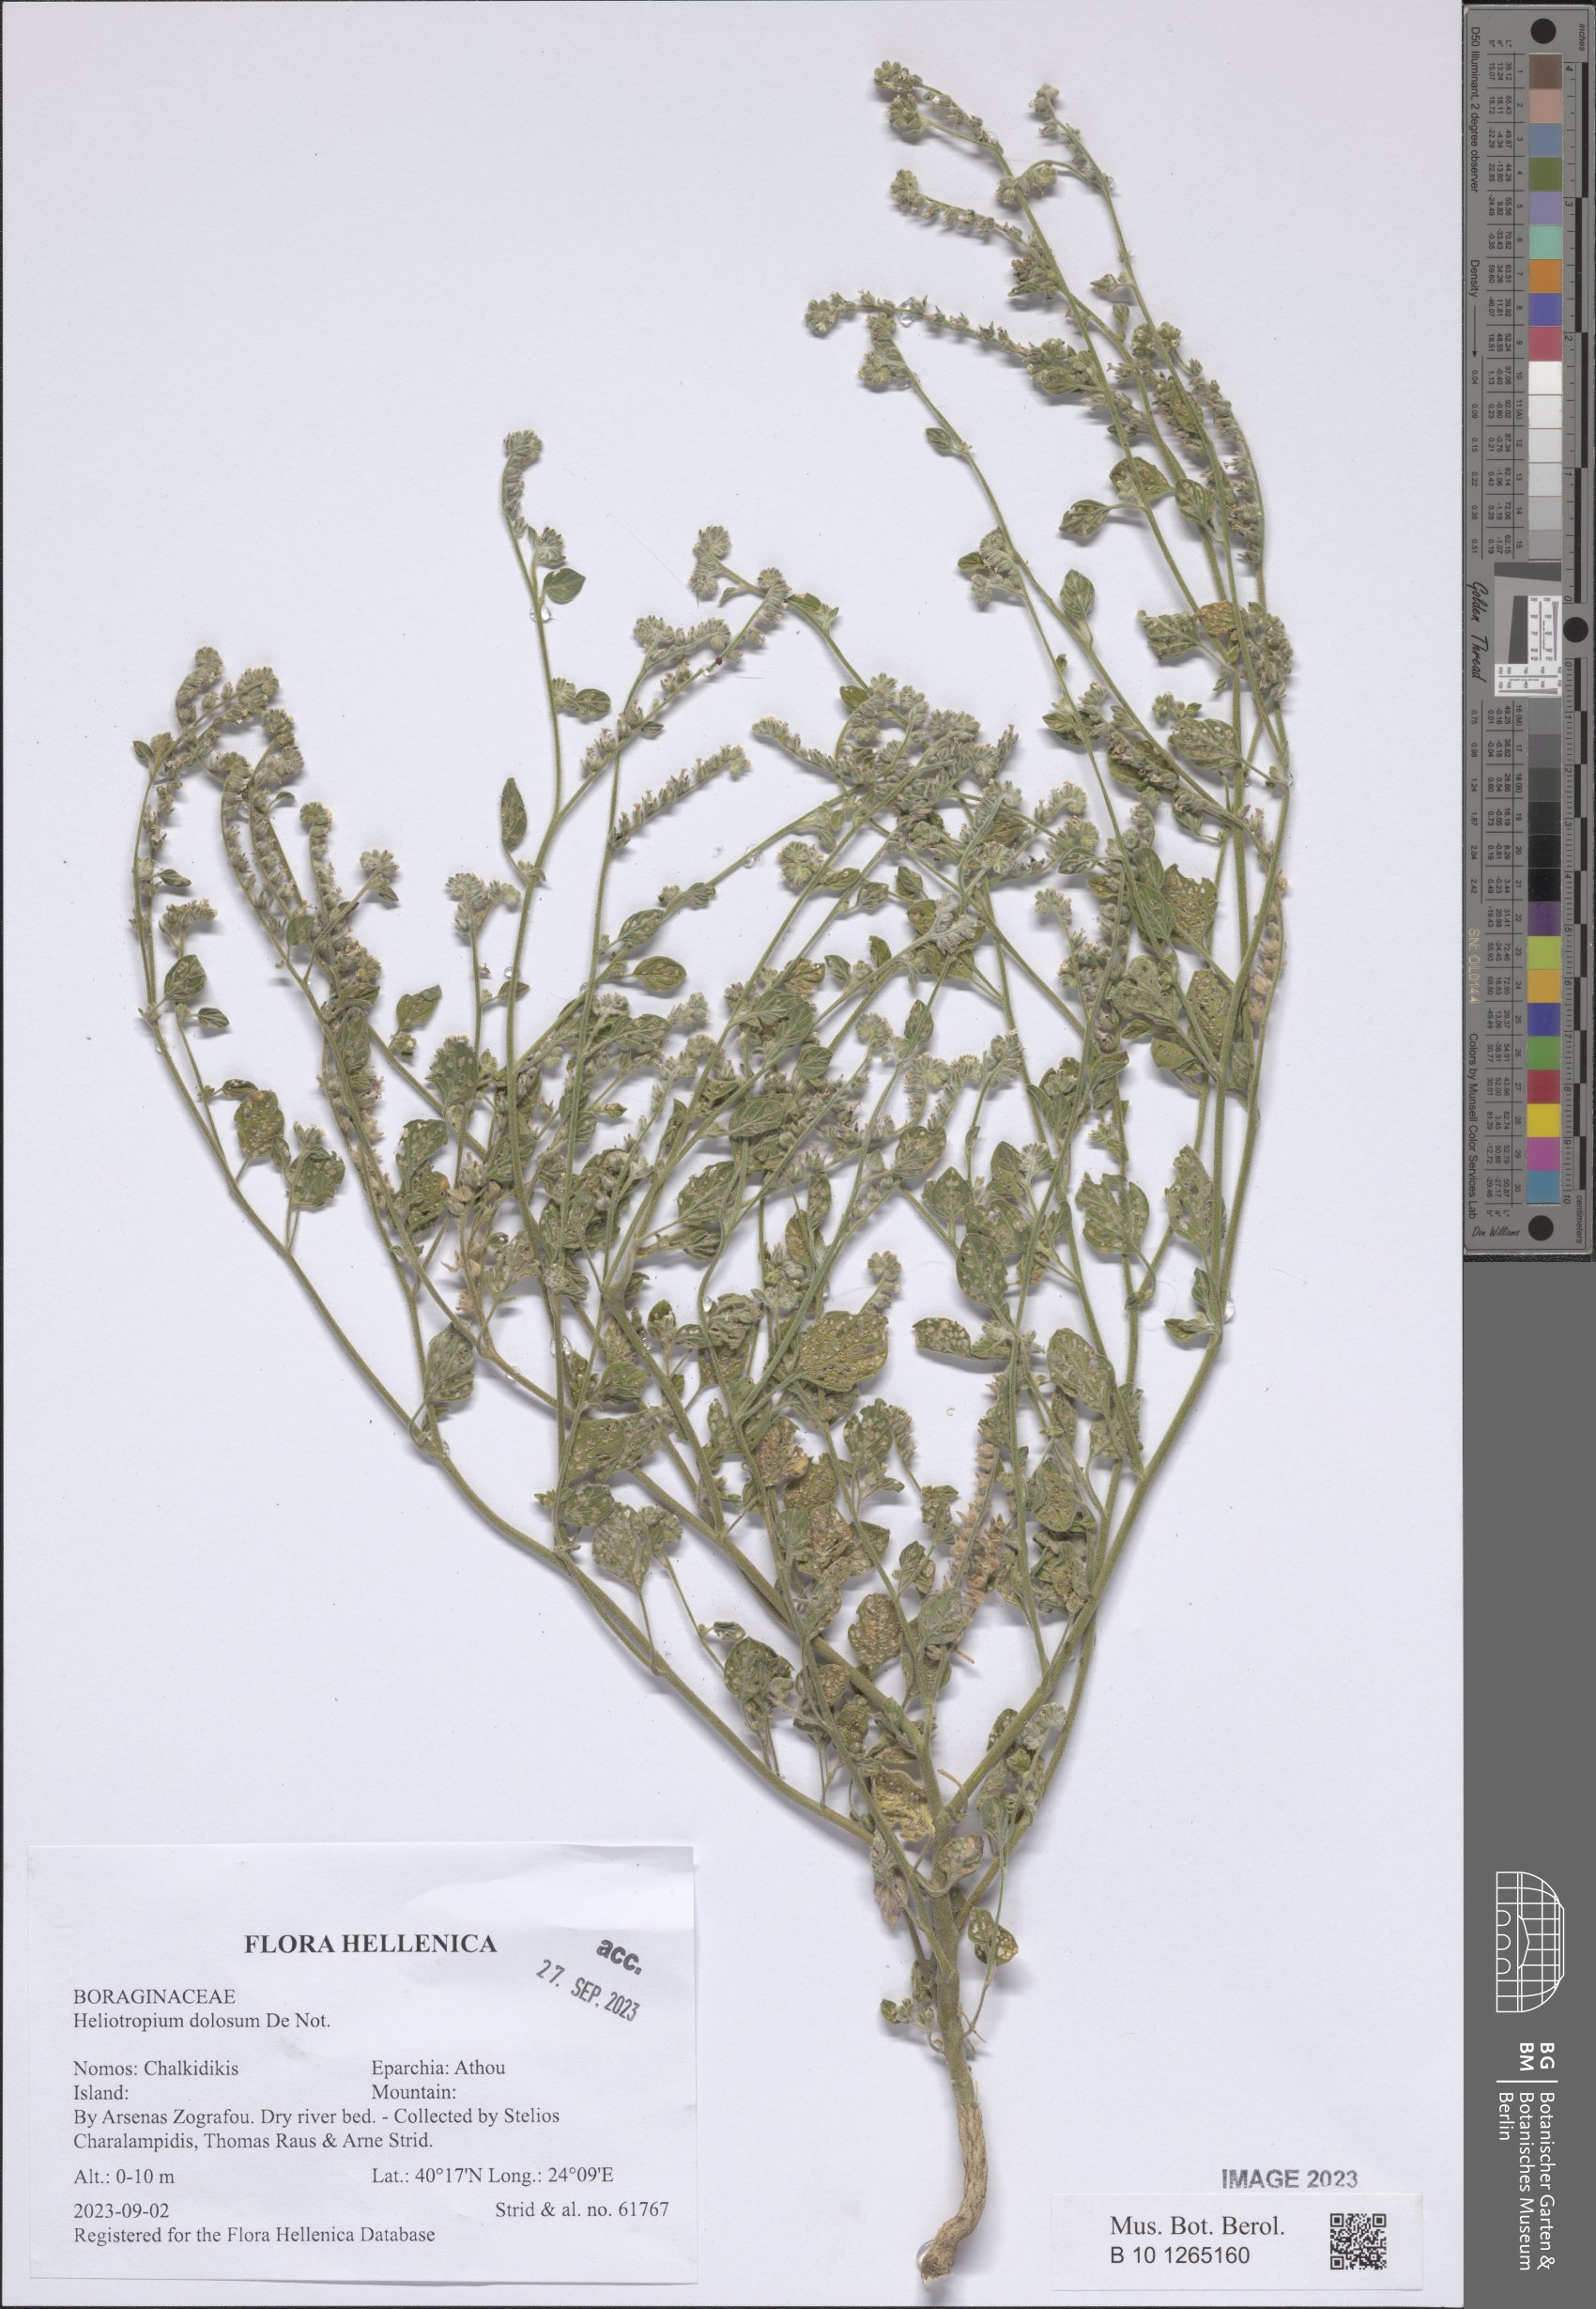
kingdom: Plantae
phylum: Tracheophyta
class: Magnoliopsida
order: Boraginales
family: Heliotropiaceae
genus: Heliotropium
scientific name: Heliotropium dolosum
